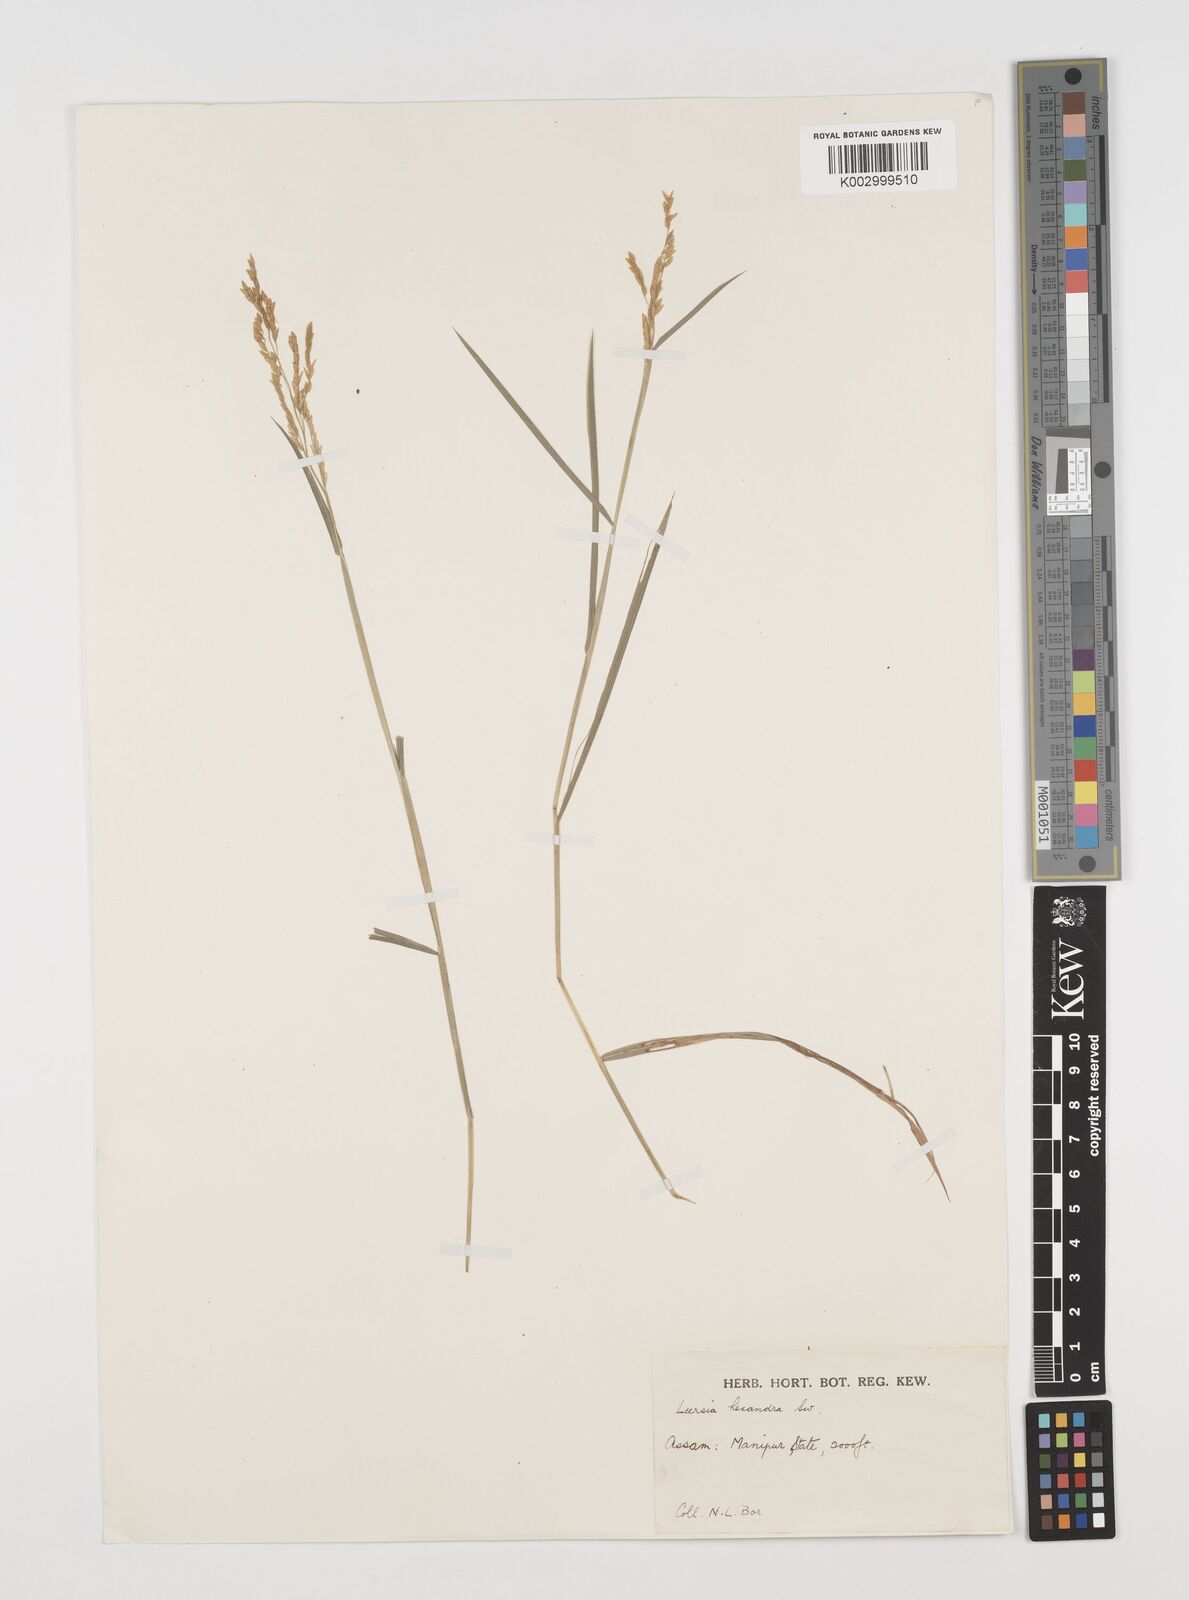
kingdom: Plantae
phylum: Tracheophyta
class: Liliopsida
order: Poales
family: Poaceae
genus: Leersia
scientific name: Leersia hexandra
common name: Southern cut grass
